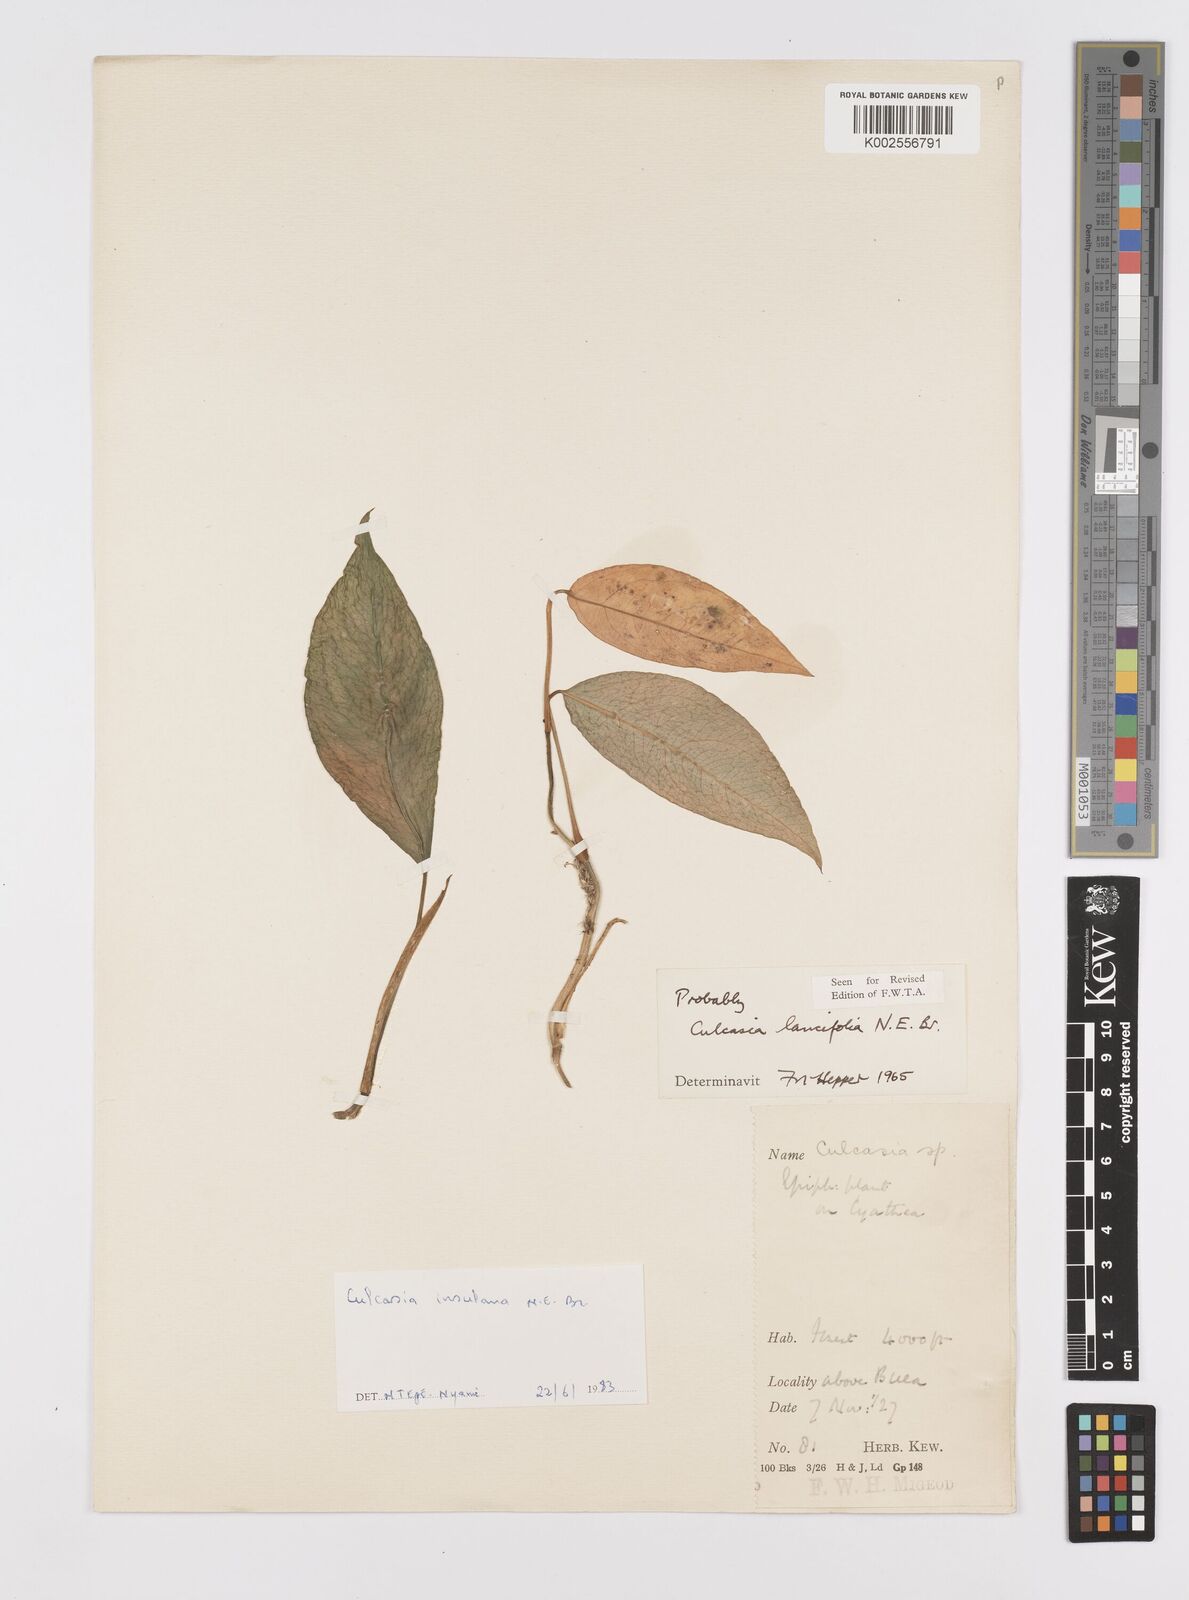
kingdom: Plantae
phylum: Tracheophyta
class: Liliopsida
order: Alismatales
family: Araceae
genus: Culcasia
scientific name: Culcasia insulana
